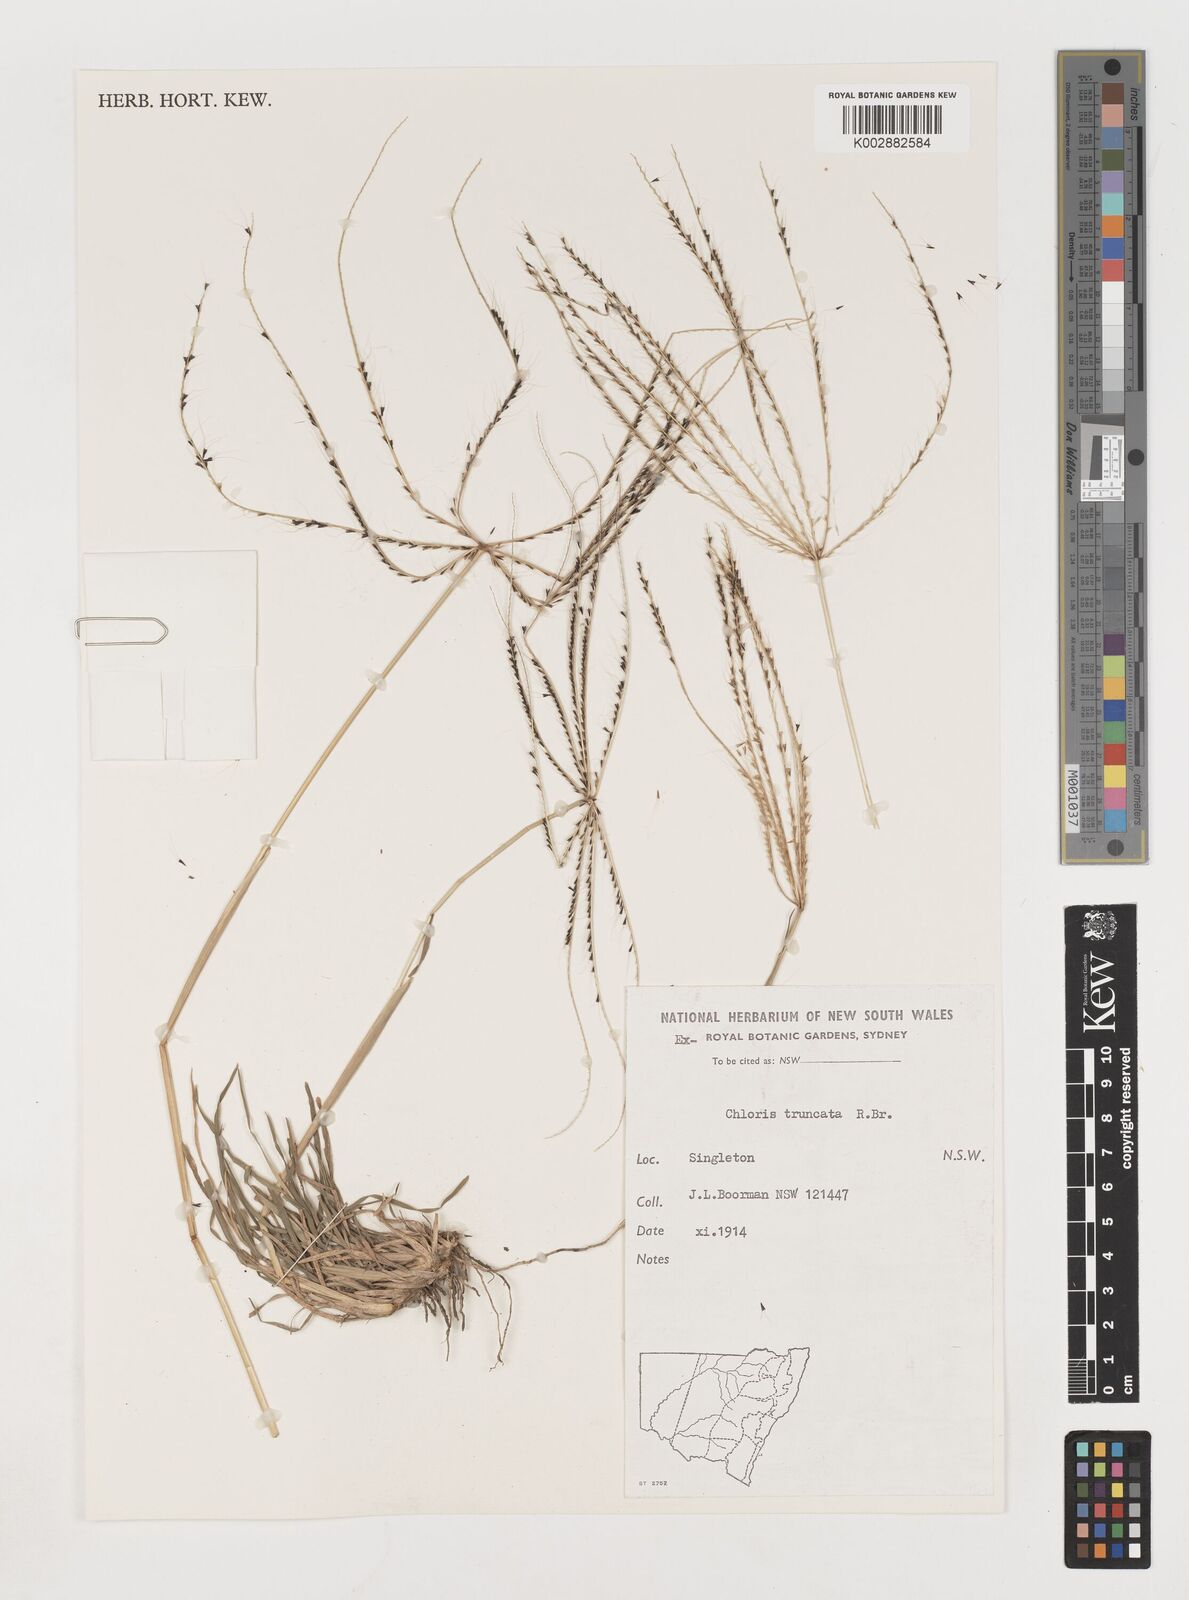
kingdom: Plantae
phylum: Tracheophyta
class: Liliopsida
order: Poales
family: Poaceae
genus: Chloris
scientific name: Chloris truncata
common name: Windmill-grass
